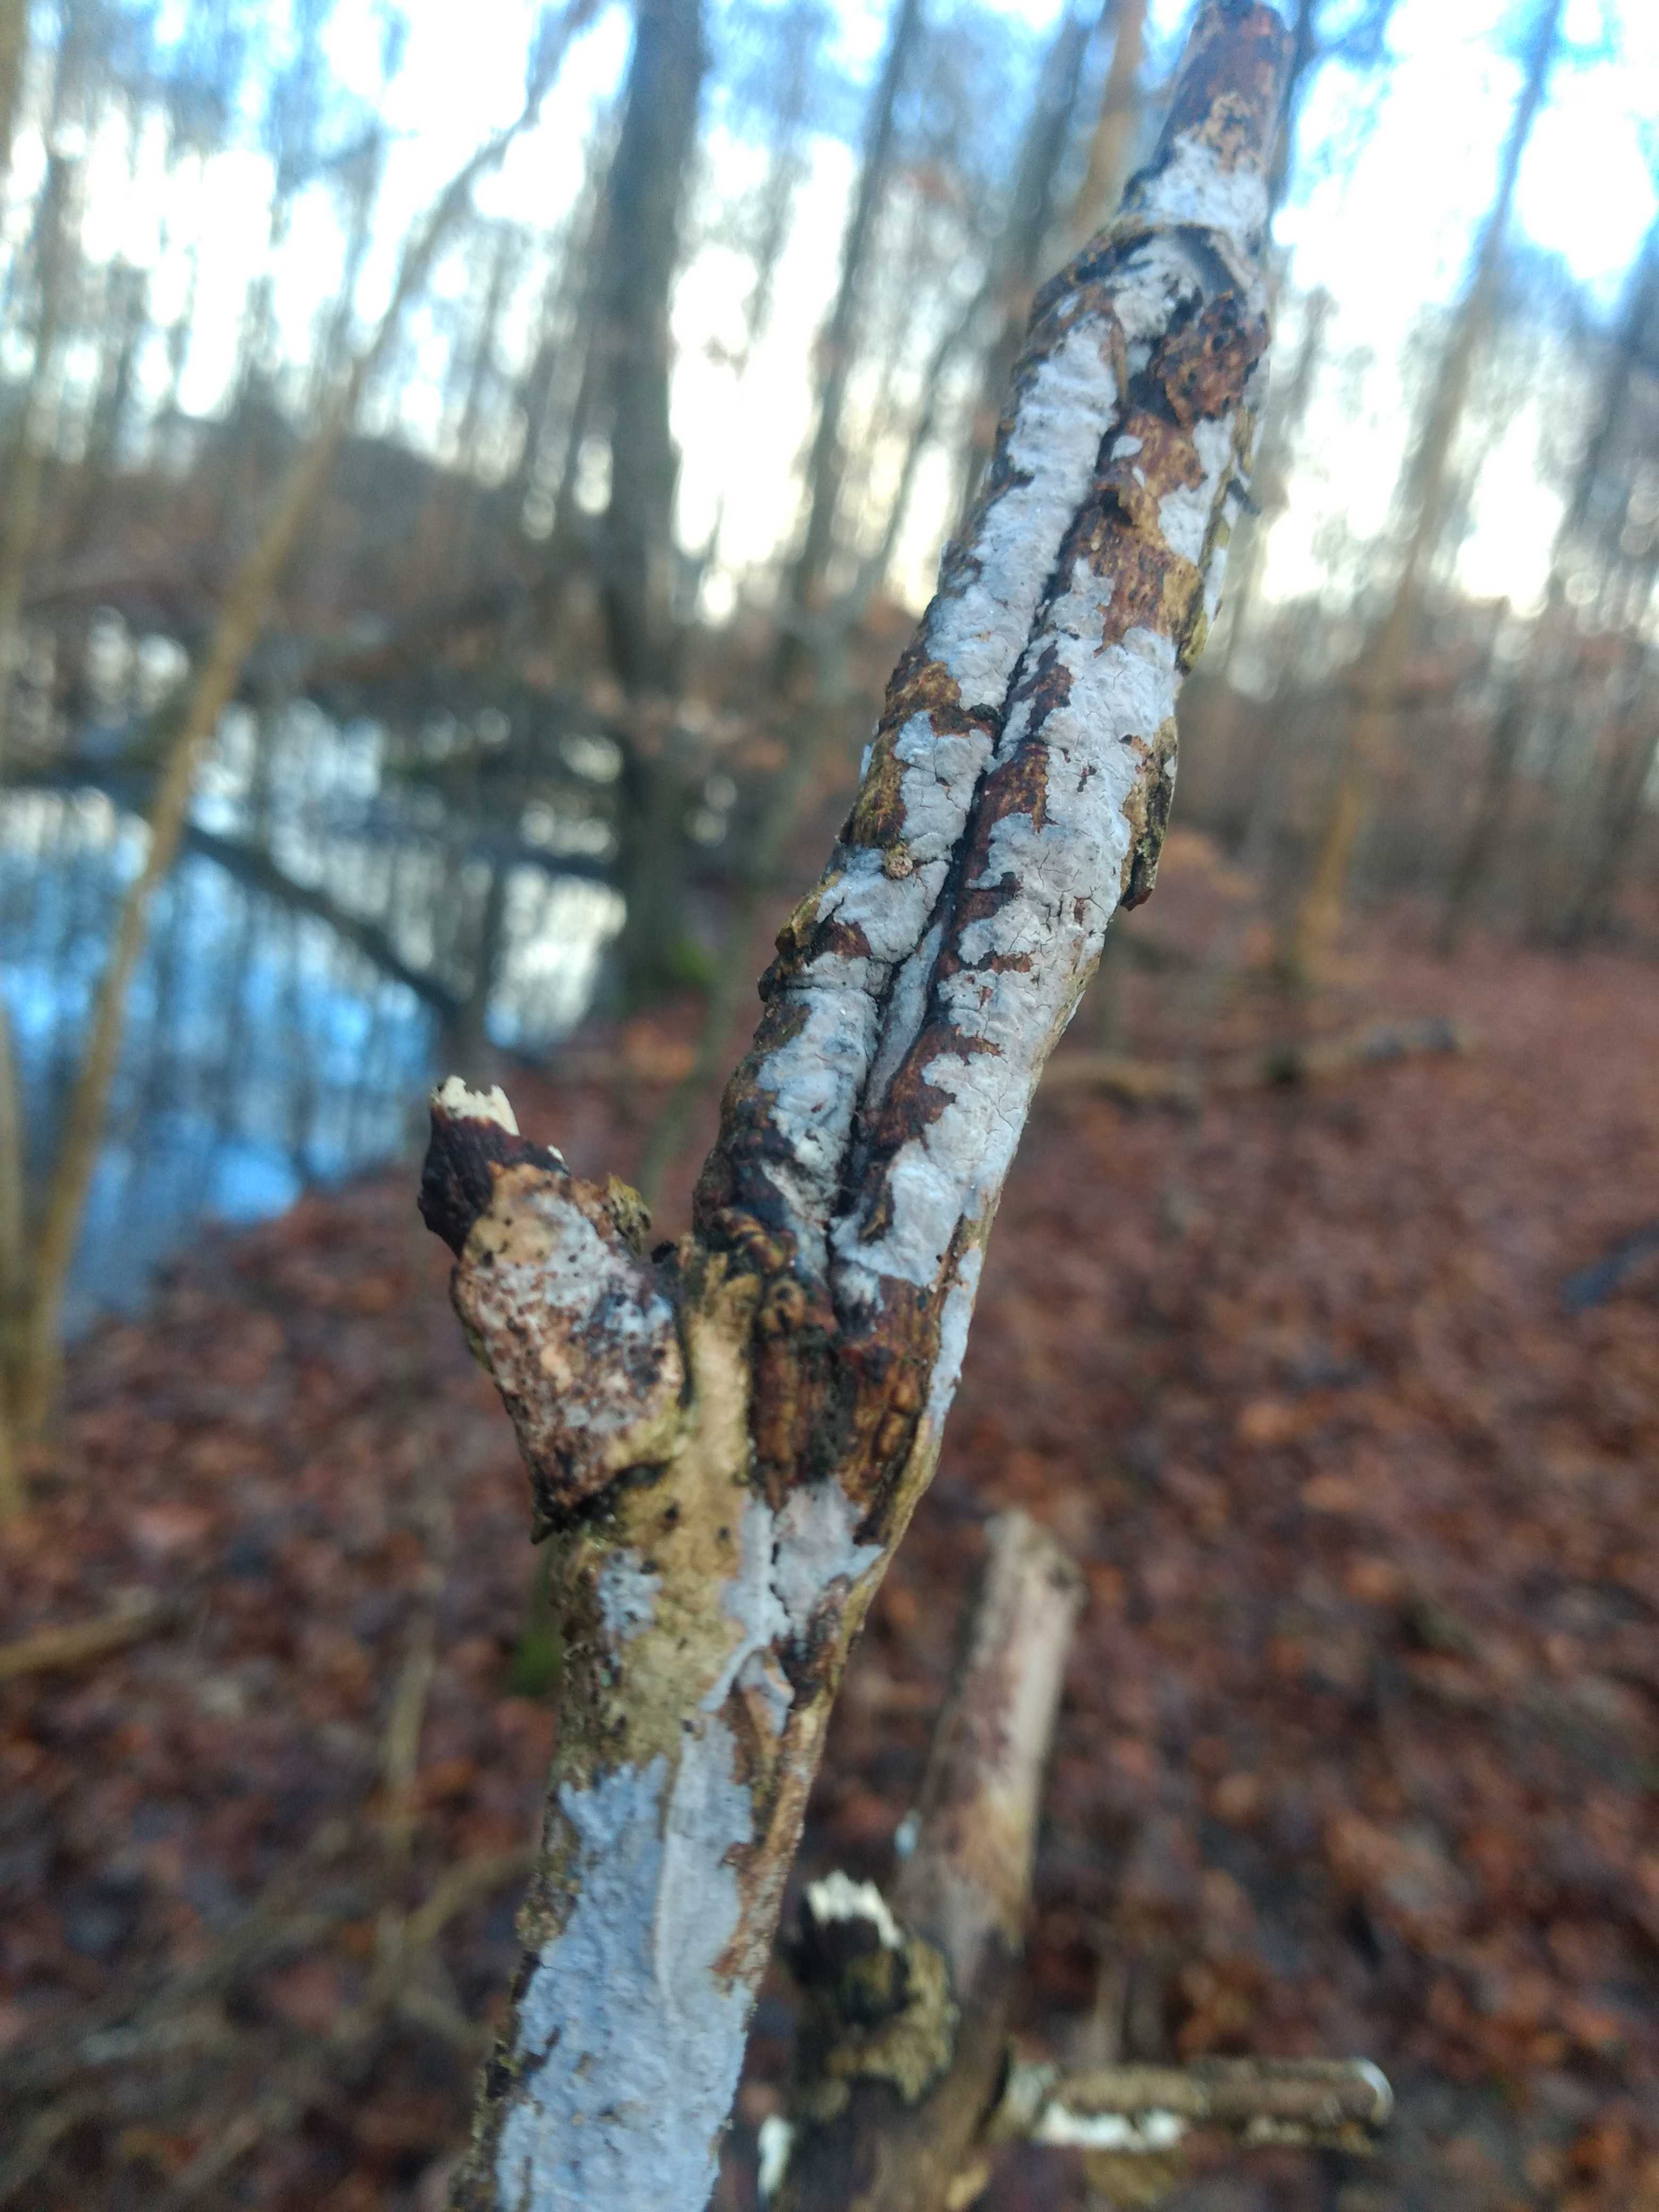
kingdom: Fungi
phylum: Basidiomycota
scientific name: Basidiomycota
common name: basidiesvampe
